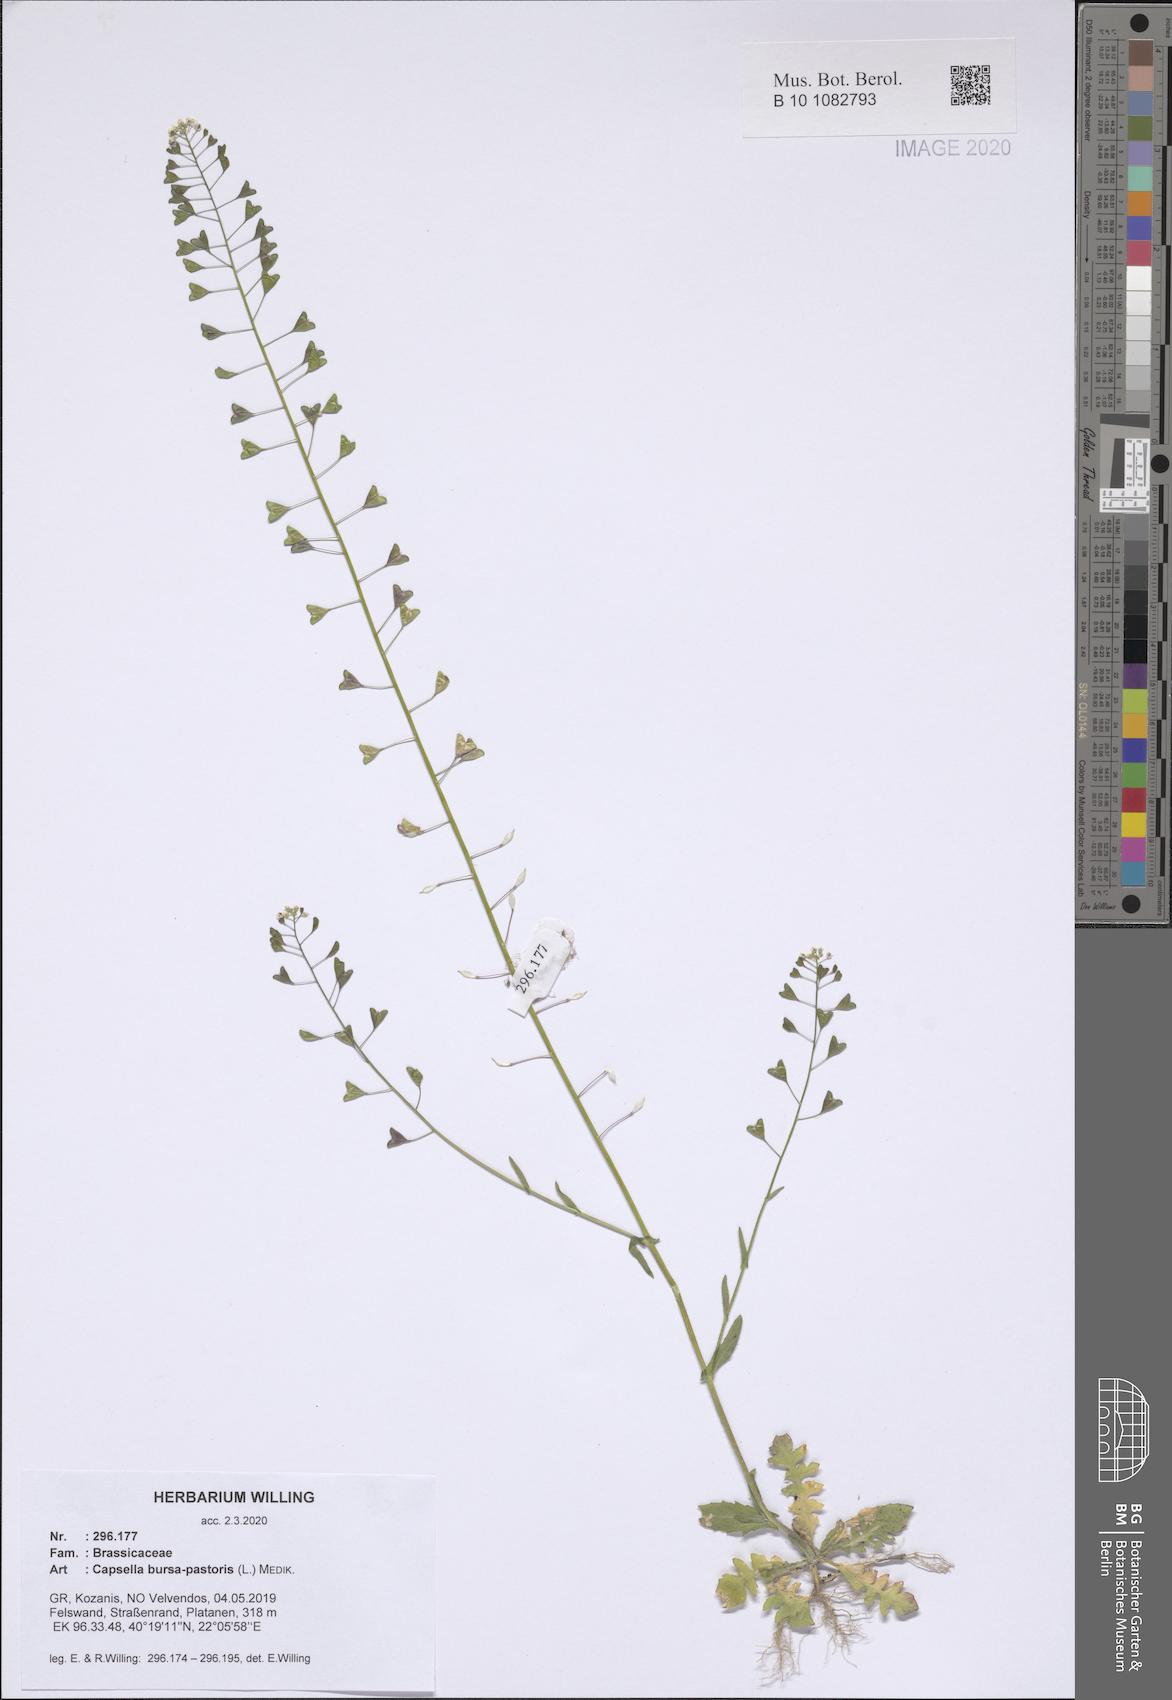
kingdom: Plantae
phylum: Tracheophyta
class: Magnoliopsida
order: Brassicales
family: Brassicaceae
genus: Capsella
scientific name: Capsella bursa-pastoris
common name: Shepherd's purse
